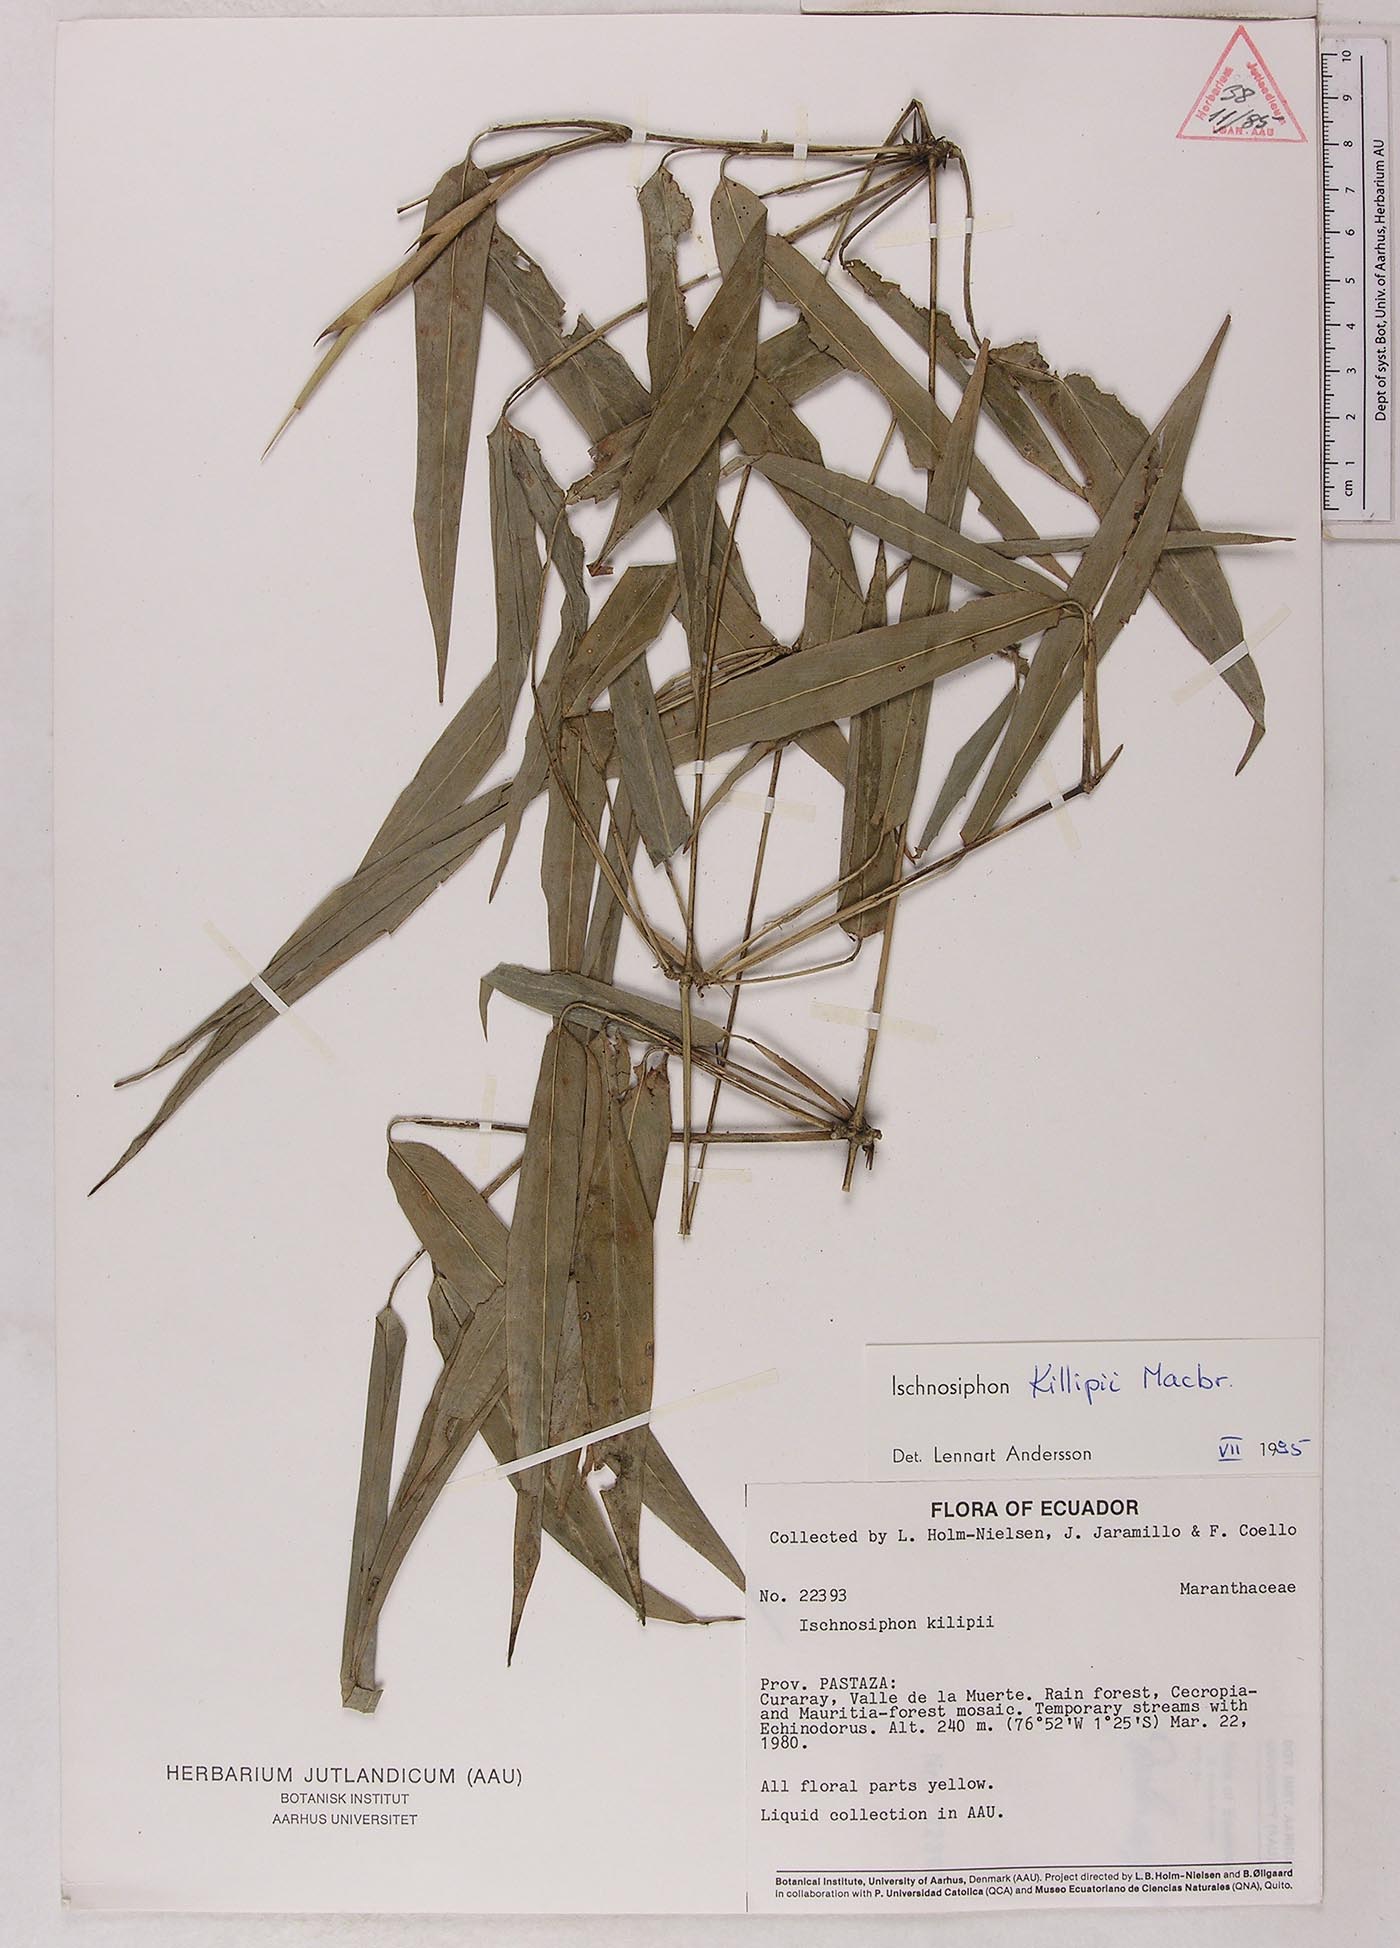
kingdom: Plantae
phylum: Tracheophyta
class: Liliopsida
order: Zingiberales
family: Marantaceae
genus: Ischnosiphon
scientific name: Ischnosiphon killipii
